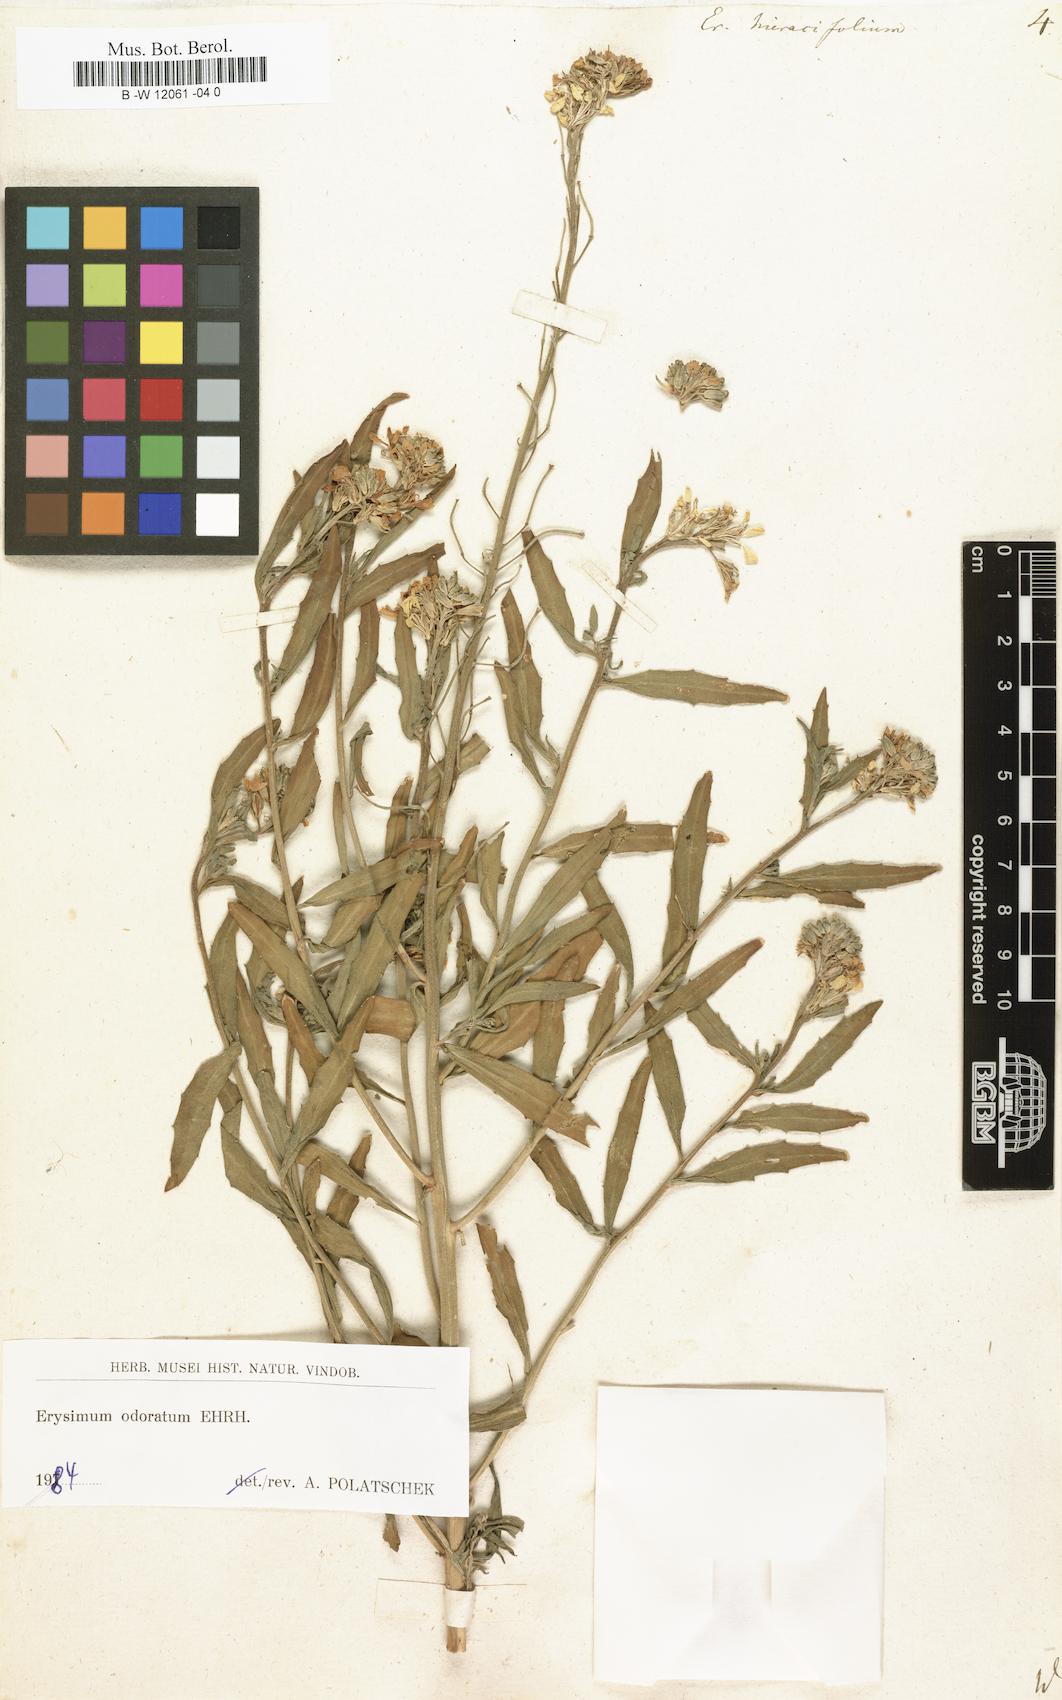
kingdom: Plantae
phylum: Tracheophyta
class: Magnoliopsida
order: Brassicales
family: Brassicaceae
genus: Erysimum
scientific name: Erysimum hieraciifolium
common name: European wallflower
